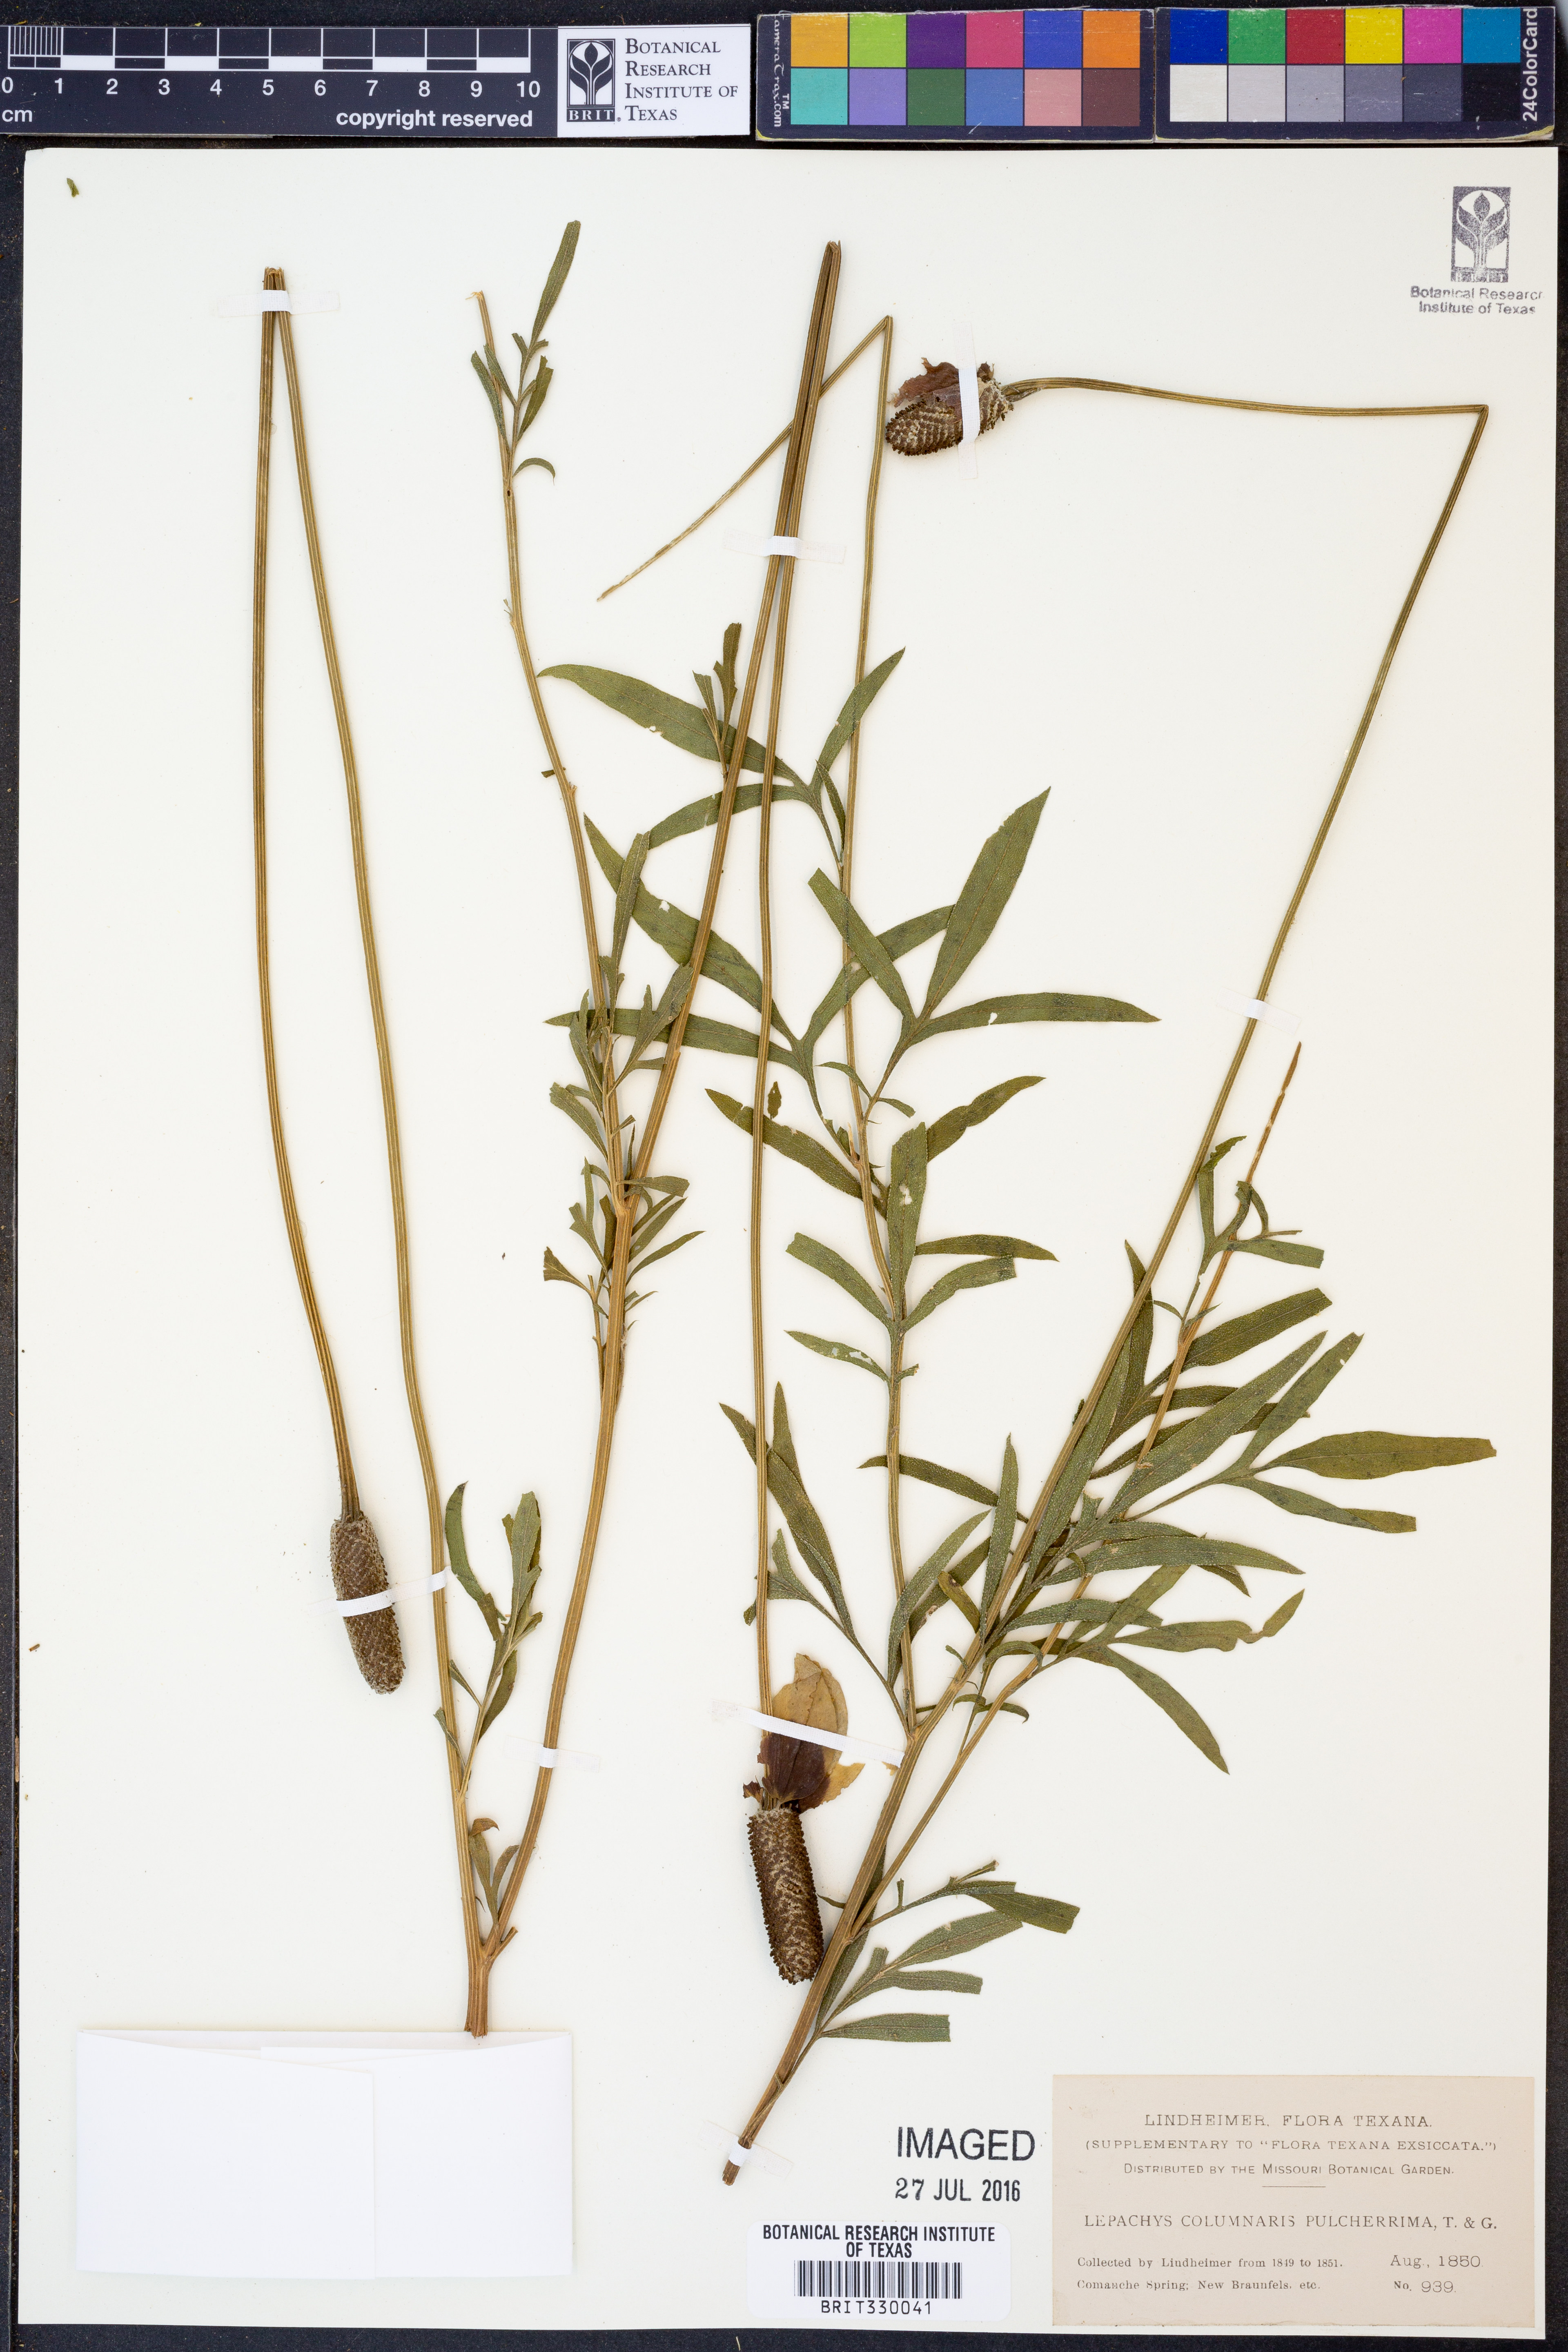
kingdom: Plantae
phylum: Tracheophyta
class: Magnoliopsida
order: Asterales
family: Asteraceae
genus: Ratibida
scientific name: Ratibida columnifera
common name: Prairie coneflower
